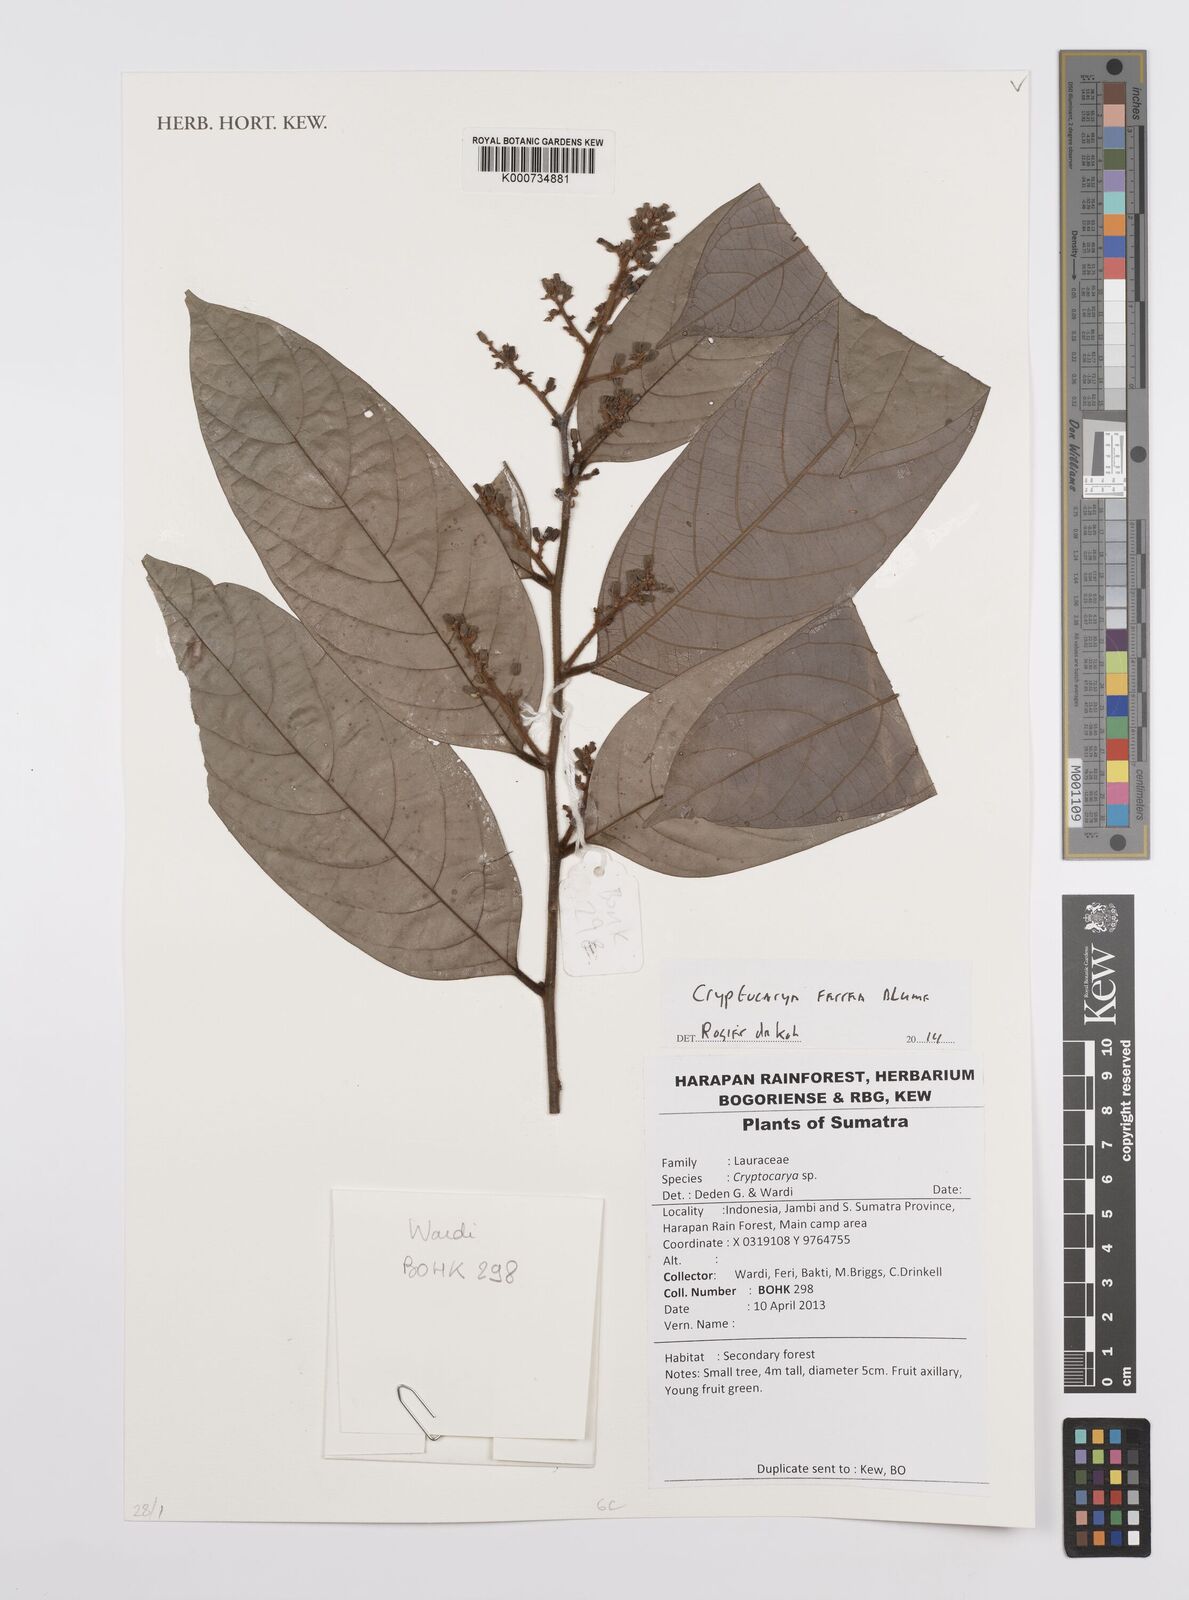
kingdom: Plantae
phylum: Tracheophyta
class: Magnoliopsida
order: Laurales
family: Lauraceae
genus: Cryptocarya
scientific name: Cryptocarya ferrea
